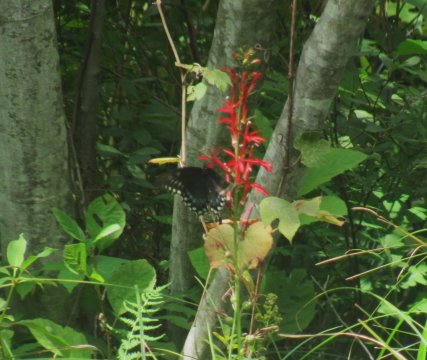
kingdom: Animalia
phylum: Arthropoda
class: Insecta
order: Lepidoptera
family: Papilionidae
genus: Pterourus
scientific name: Pterourus troilus
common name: Spicebush Swallowtail
